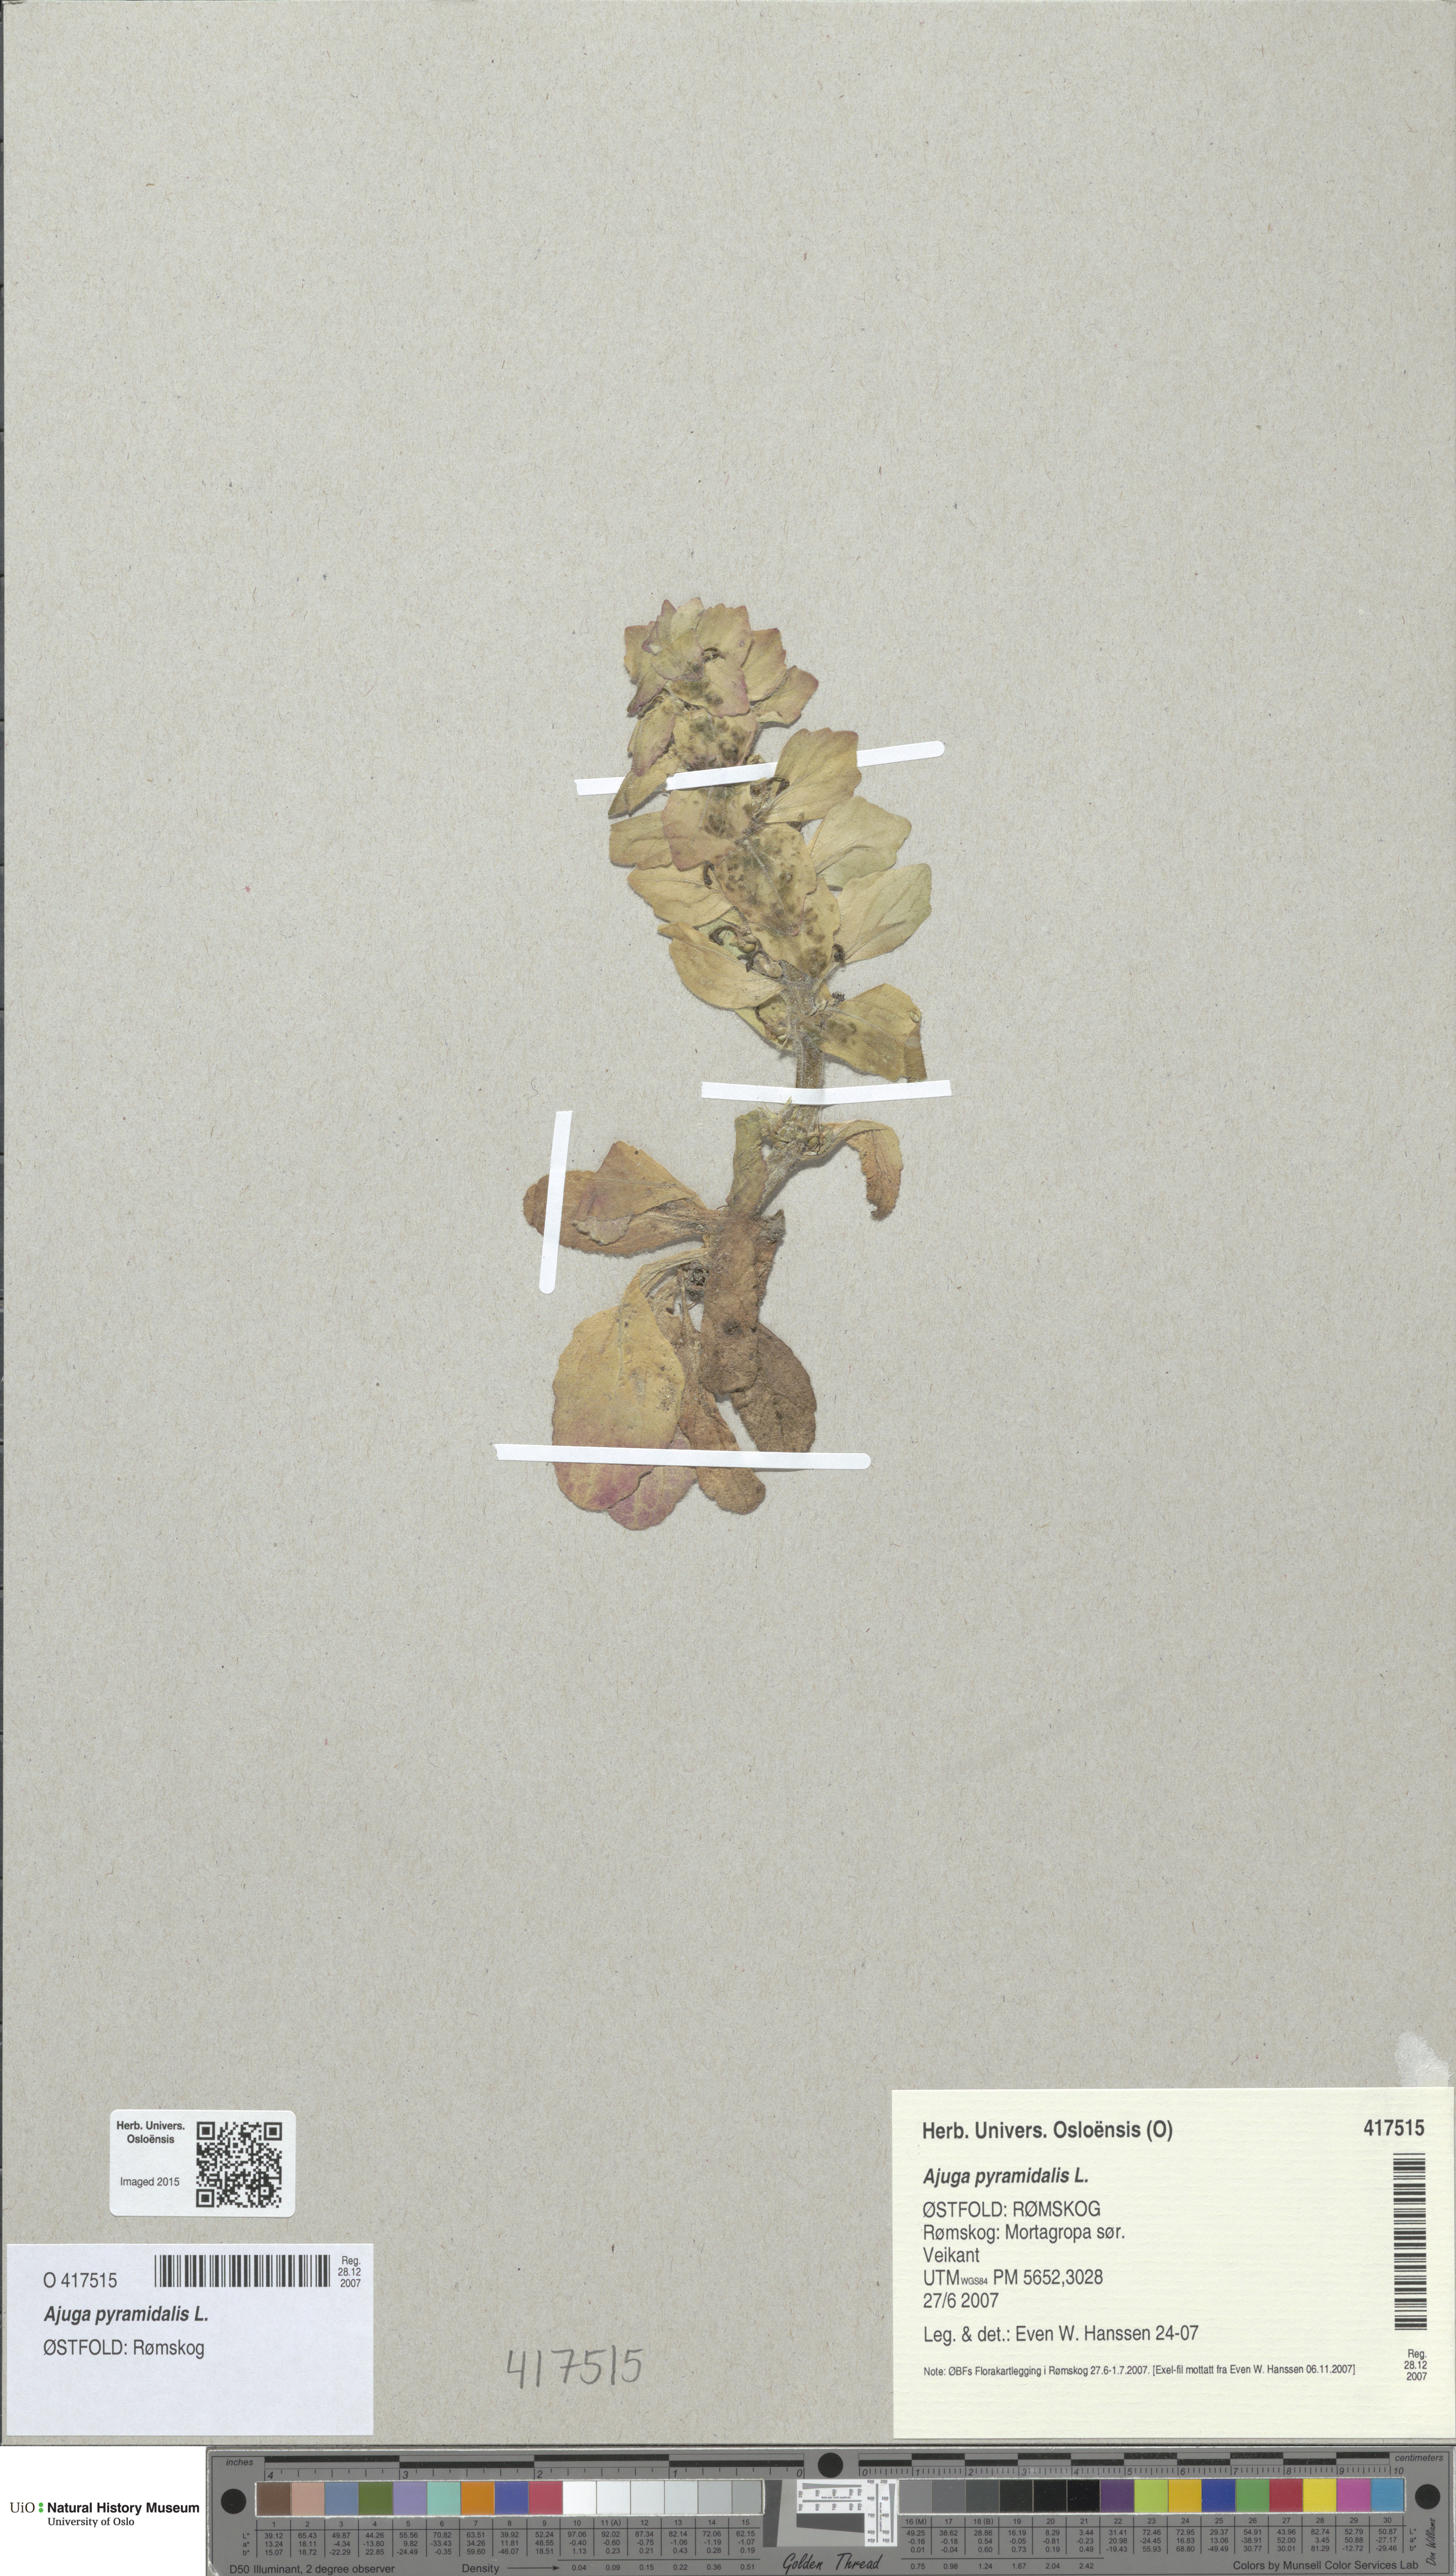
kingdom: Plantae
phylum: Tracheophyta
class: Magnoliopsida
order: Lamiales
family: Lamiaceae
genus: Ajuga
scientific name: Ajuga pyramidalis
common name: Pyramid bugle
